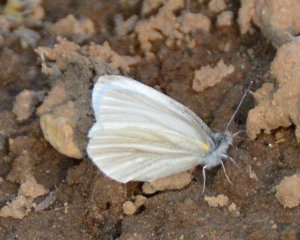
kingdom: Animalia
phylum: Arthropoda
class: Insecta
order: Lepidoptera
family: Pieridae
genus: Pieris
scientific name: Pieris virginiensis
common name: West Virginia White
